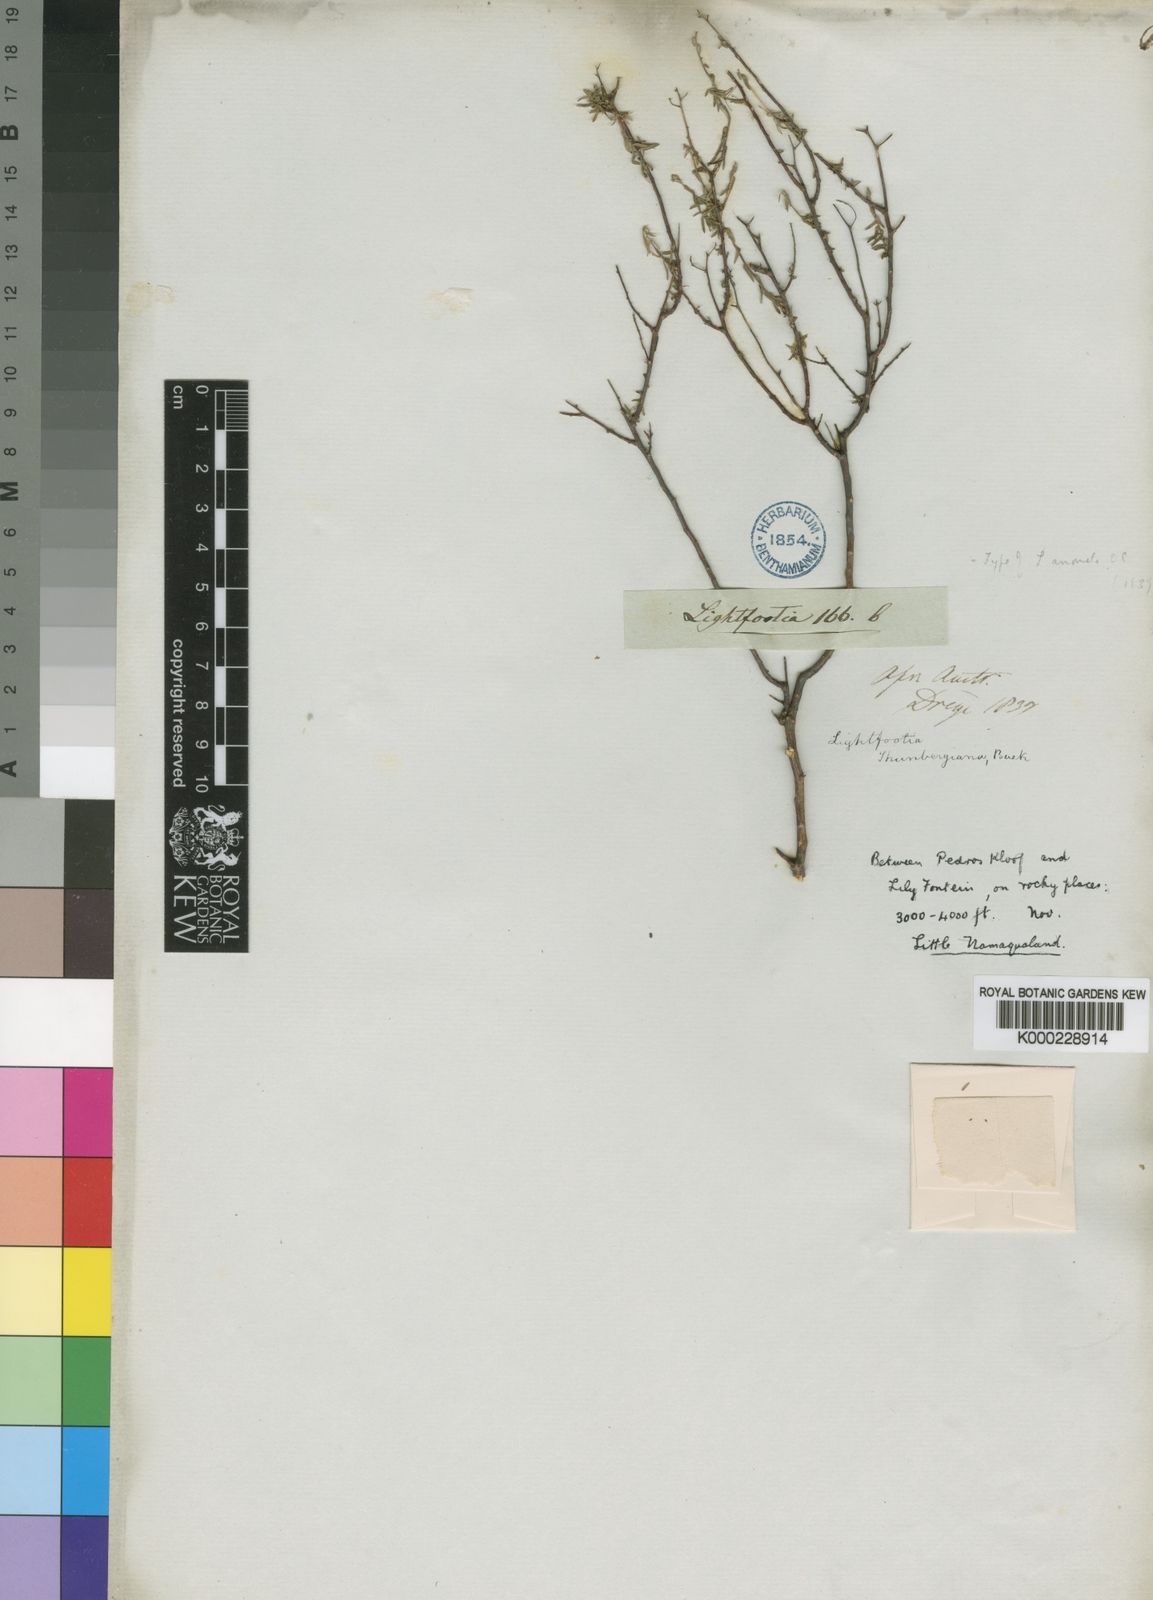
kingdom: Plantae
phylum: Tracheophyta
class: Magnoliopsida
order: Asterales
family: Campanulaceae
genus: Wahlenbergia
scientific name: Wahlenbergia thunbergiana
